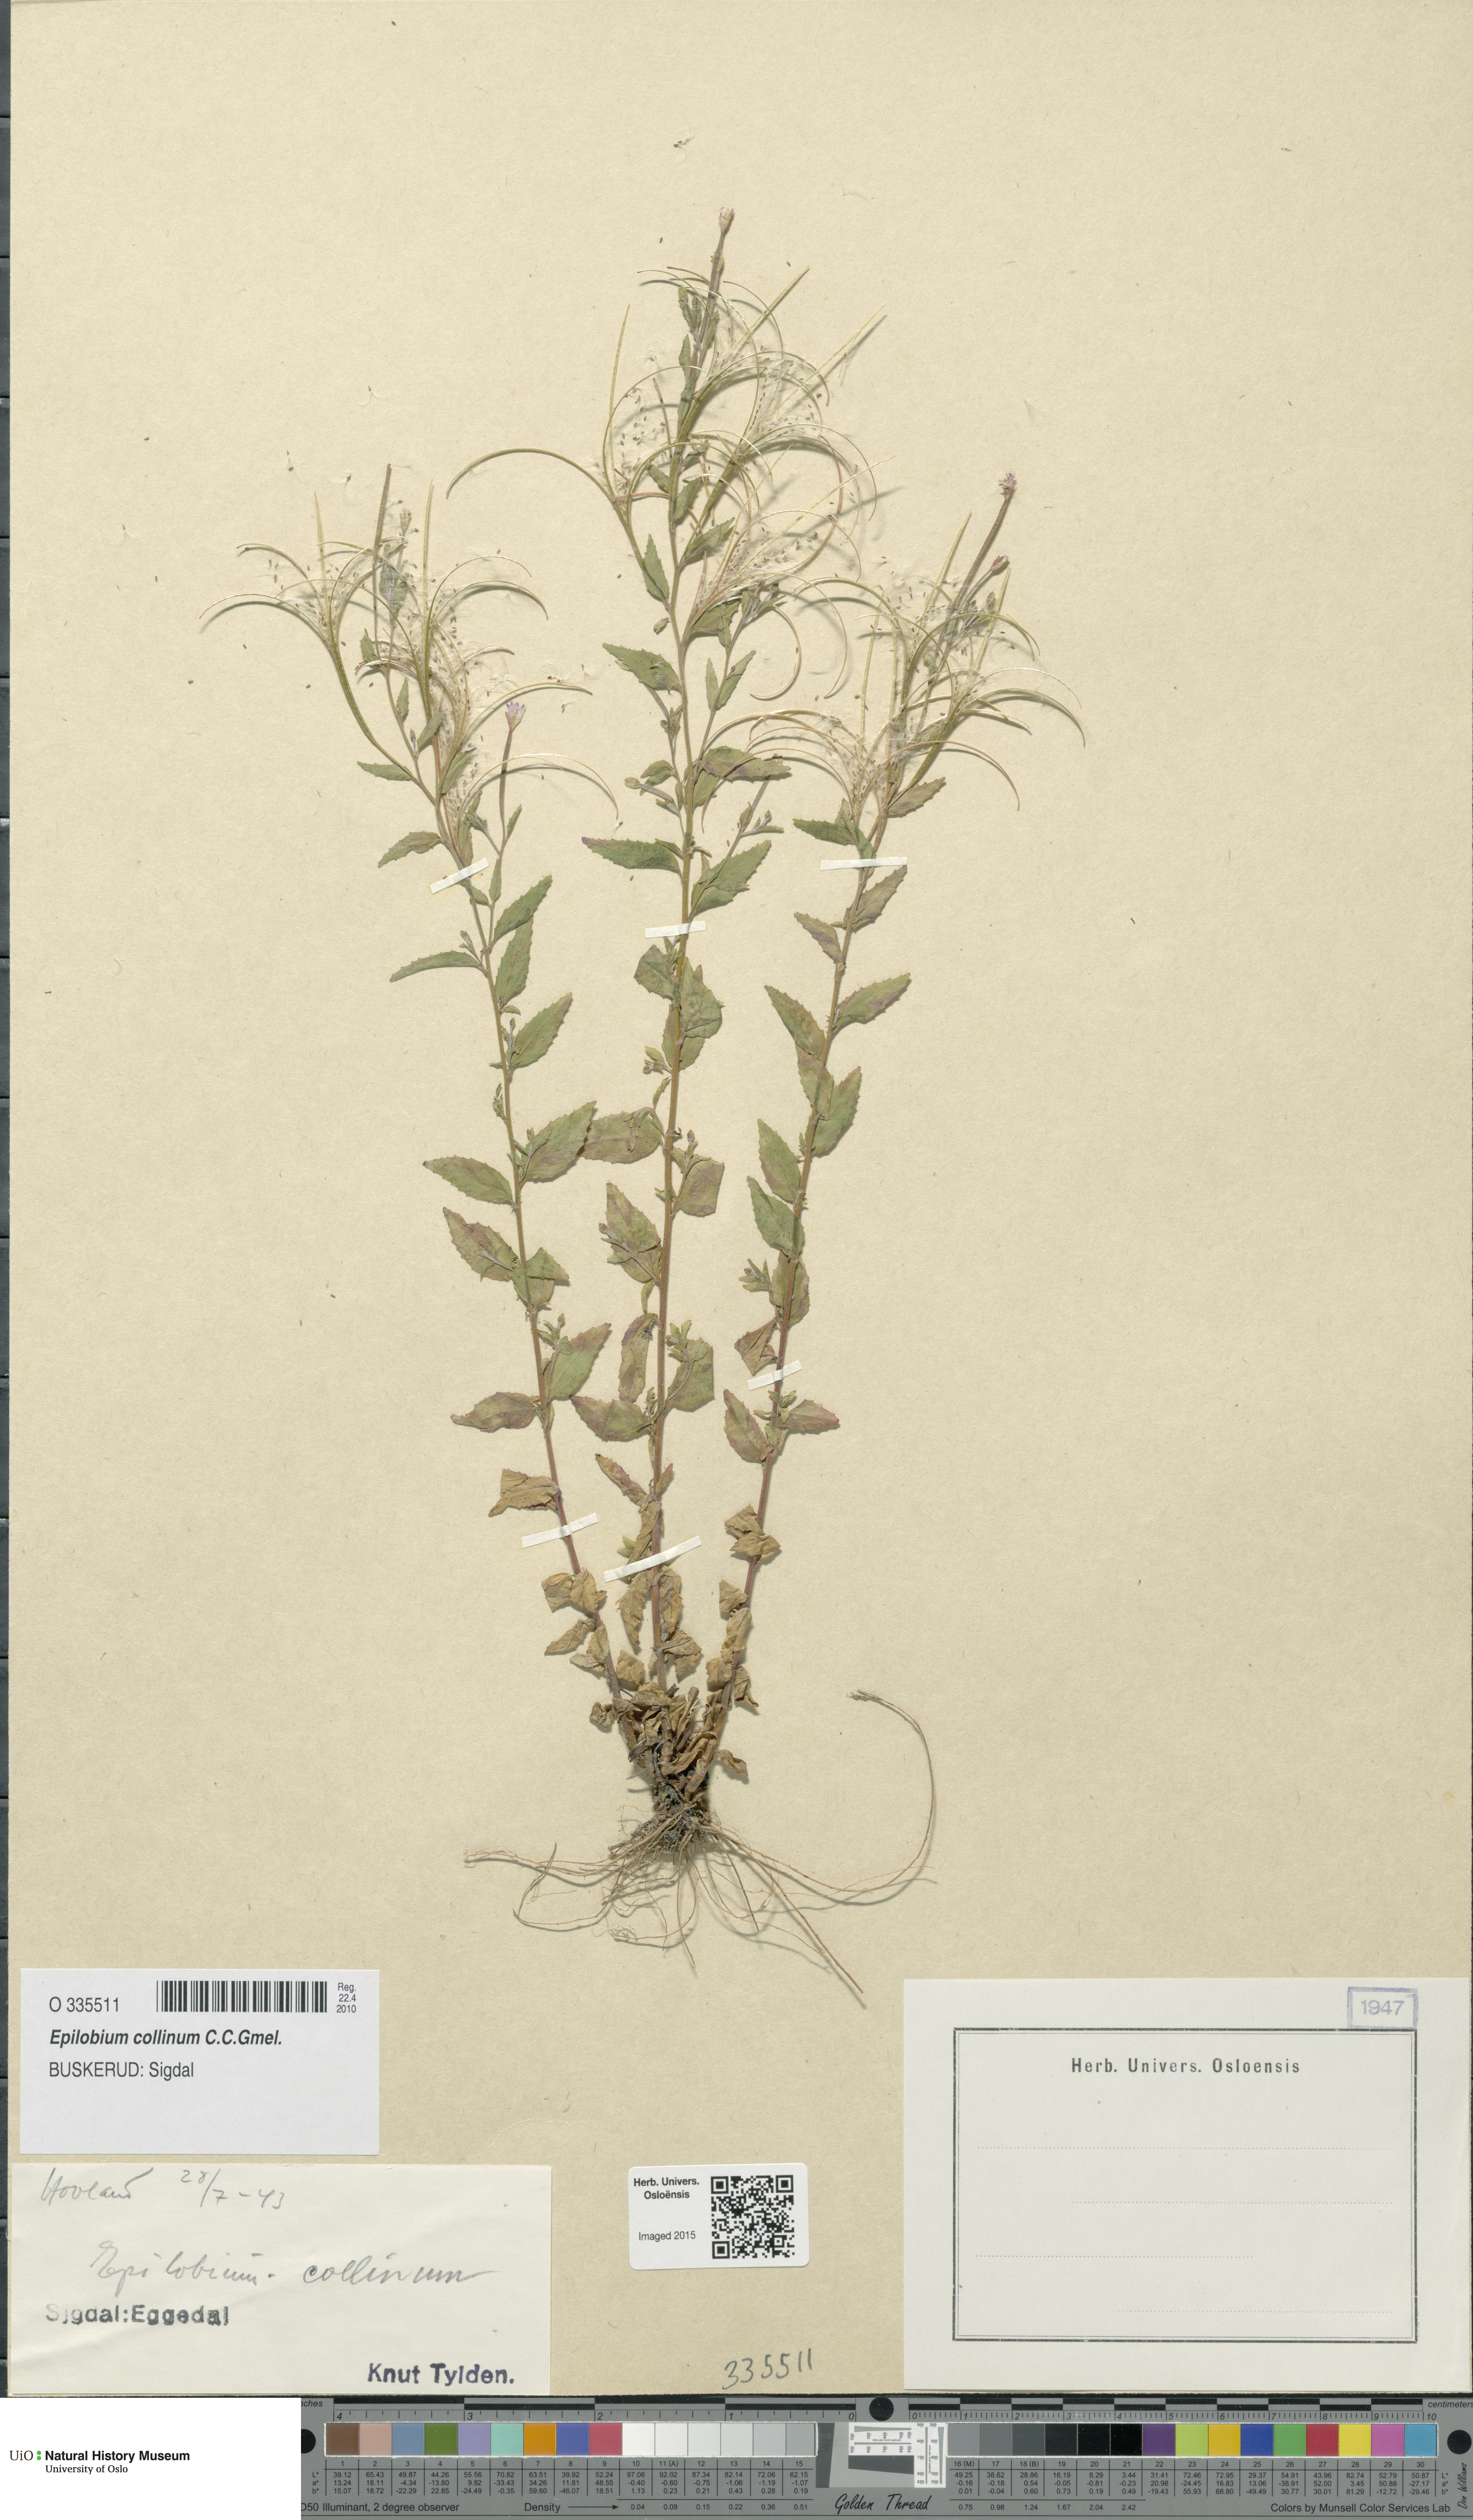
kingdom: Plantae
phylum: Tracheophyta
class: Magnoliopsida
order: Myrtales
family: Onagraceae
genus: Epilobium
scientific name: Epilobium collinum
